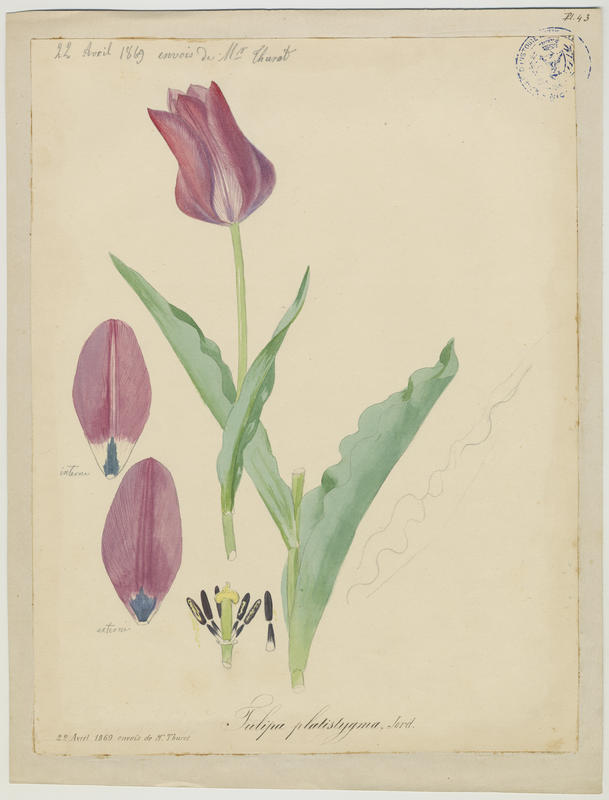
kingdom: Plantae
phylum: Tracheophyta
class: Liliopsida
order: Liliales
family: Liliaceae
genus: Tulipa
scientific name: Tulipa gesneriana
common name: Garden tulip
